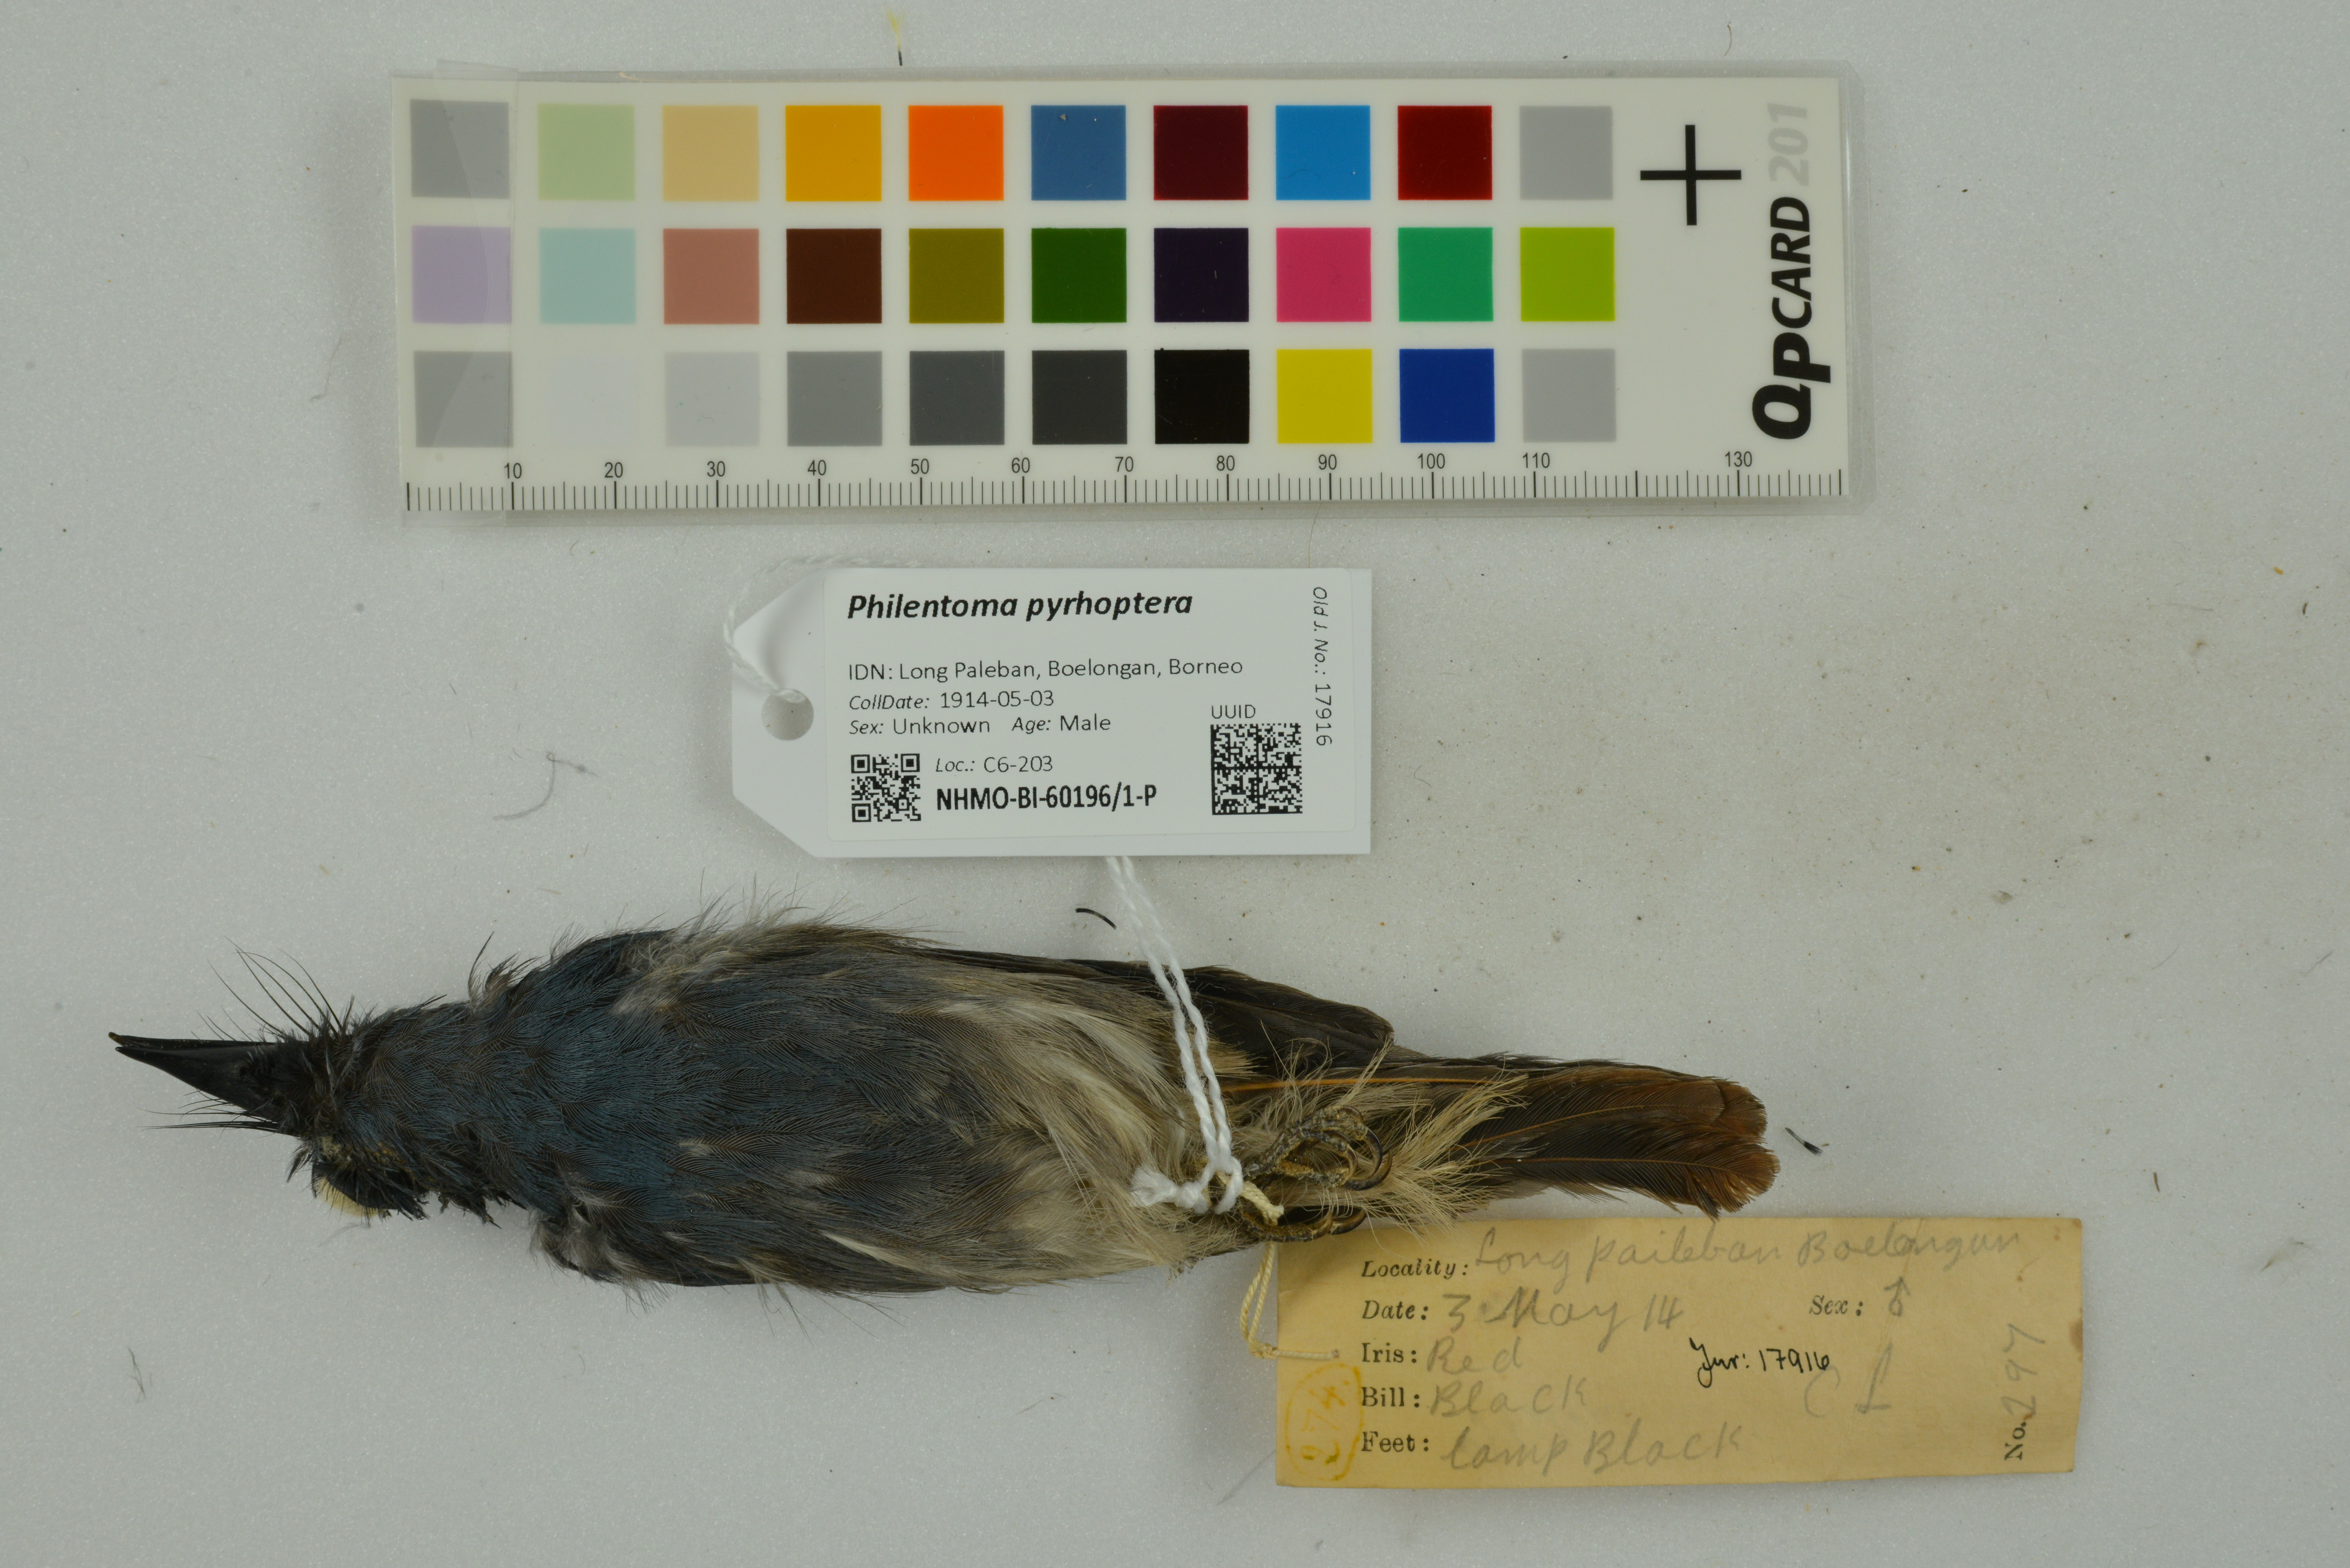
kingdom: Animalia
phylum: Chordata
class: Aves
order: Passeriformes
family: Tephrodornithidae
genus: Philentoma
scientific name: Philentoma pyrhoptera
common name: Rufous-winged philentoma
